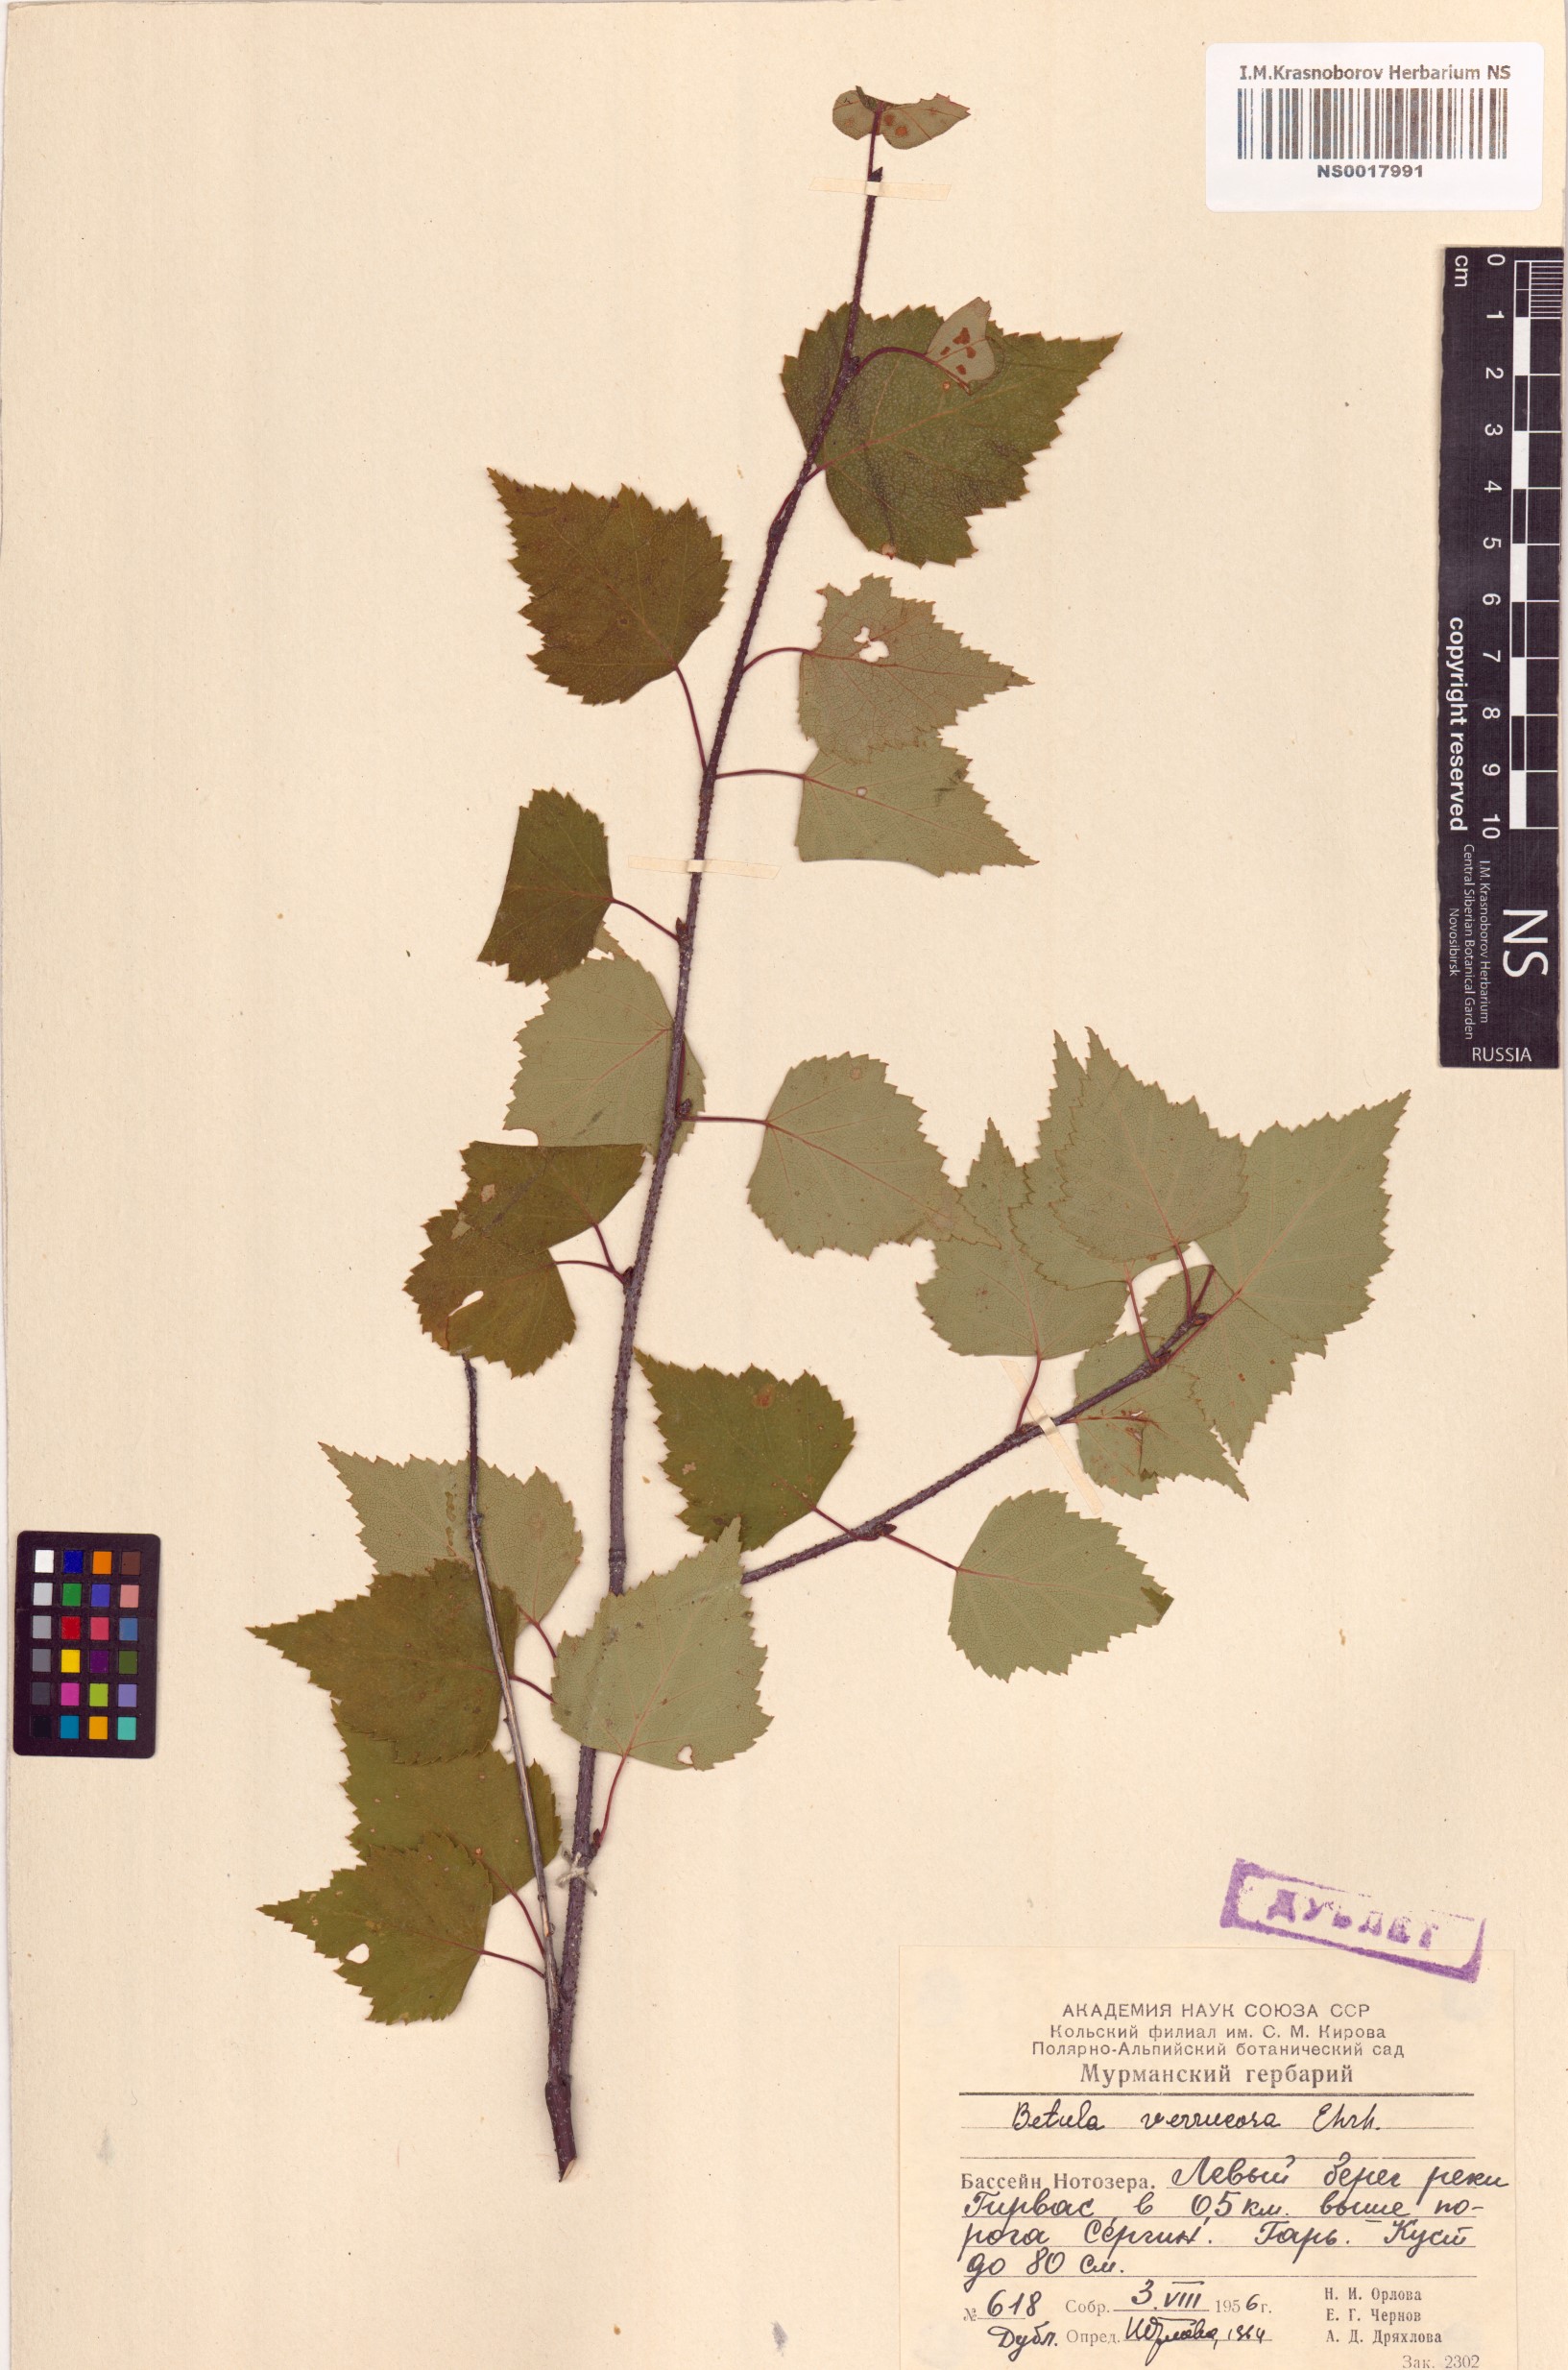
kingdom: Plantae
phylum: Tracheophyta
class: Magnoliopsida
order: Fagales
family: Betulaceae
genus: Betula
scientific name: Betula pendula
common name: Silver birch
